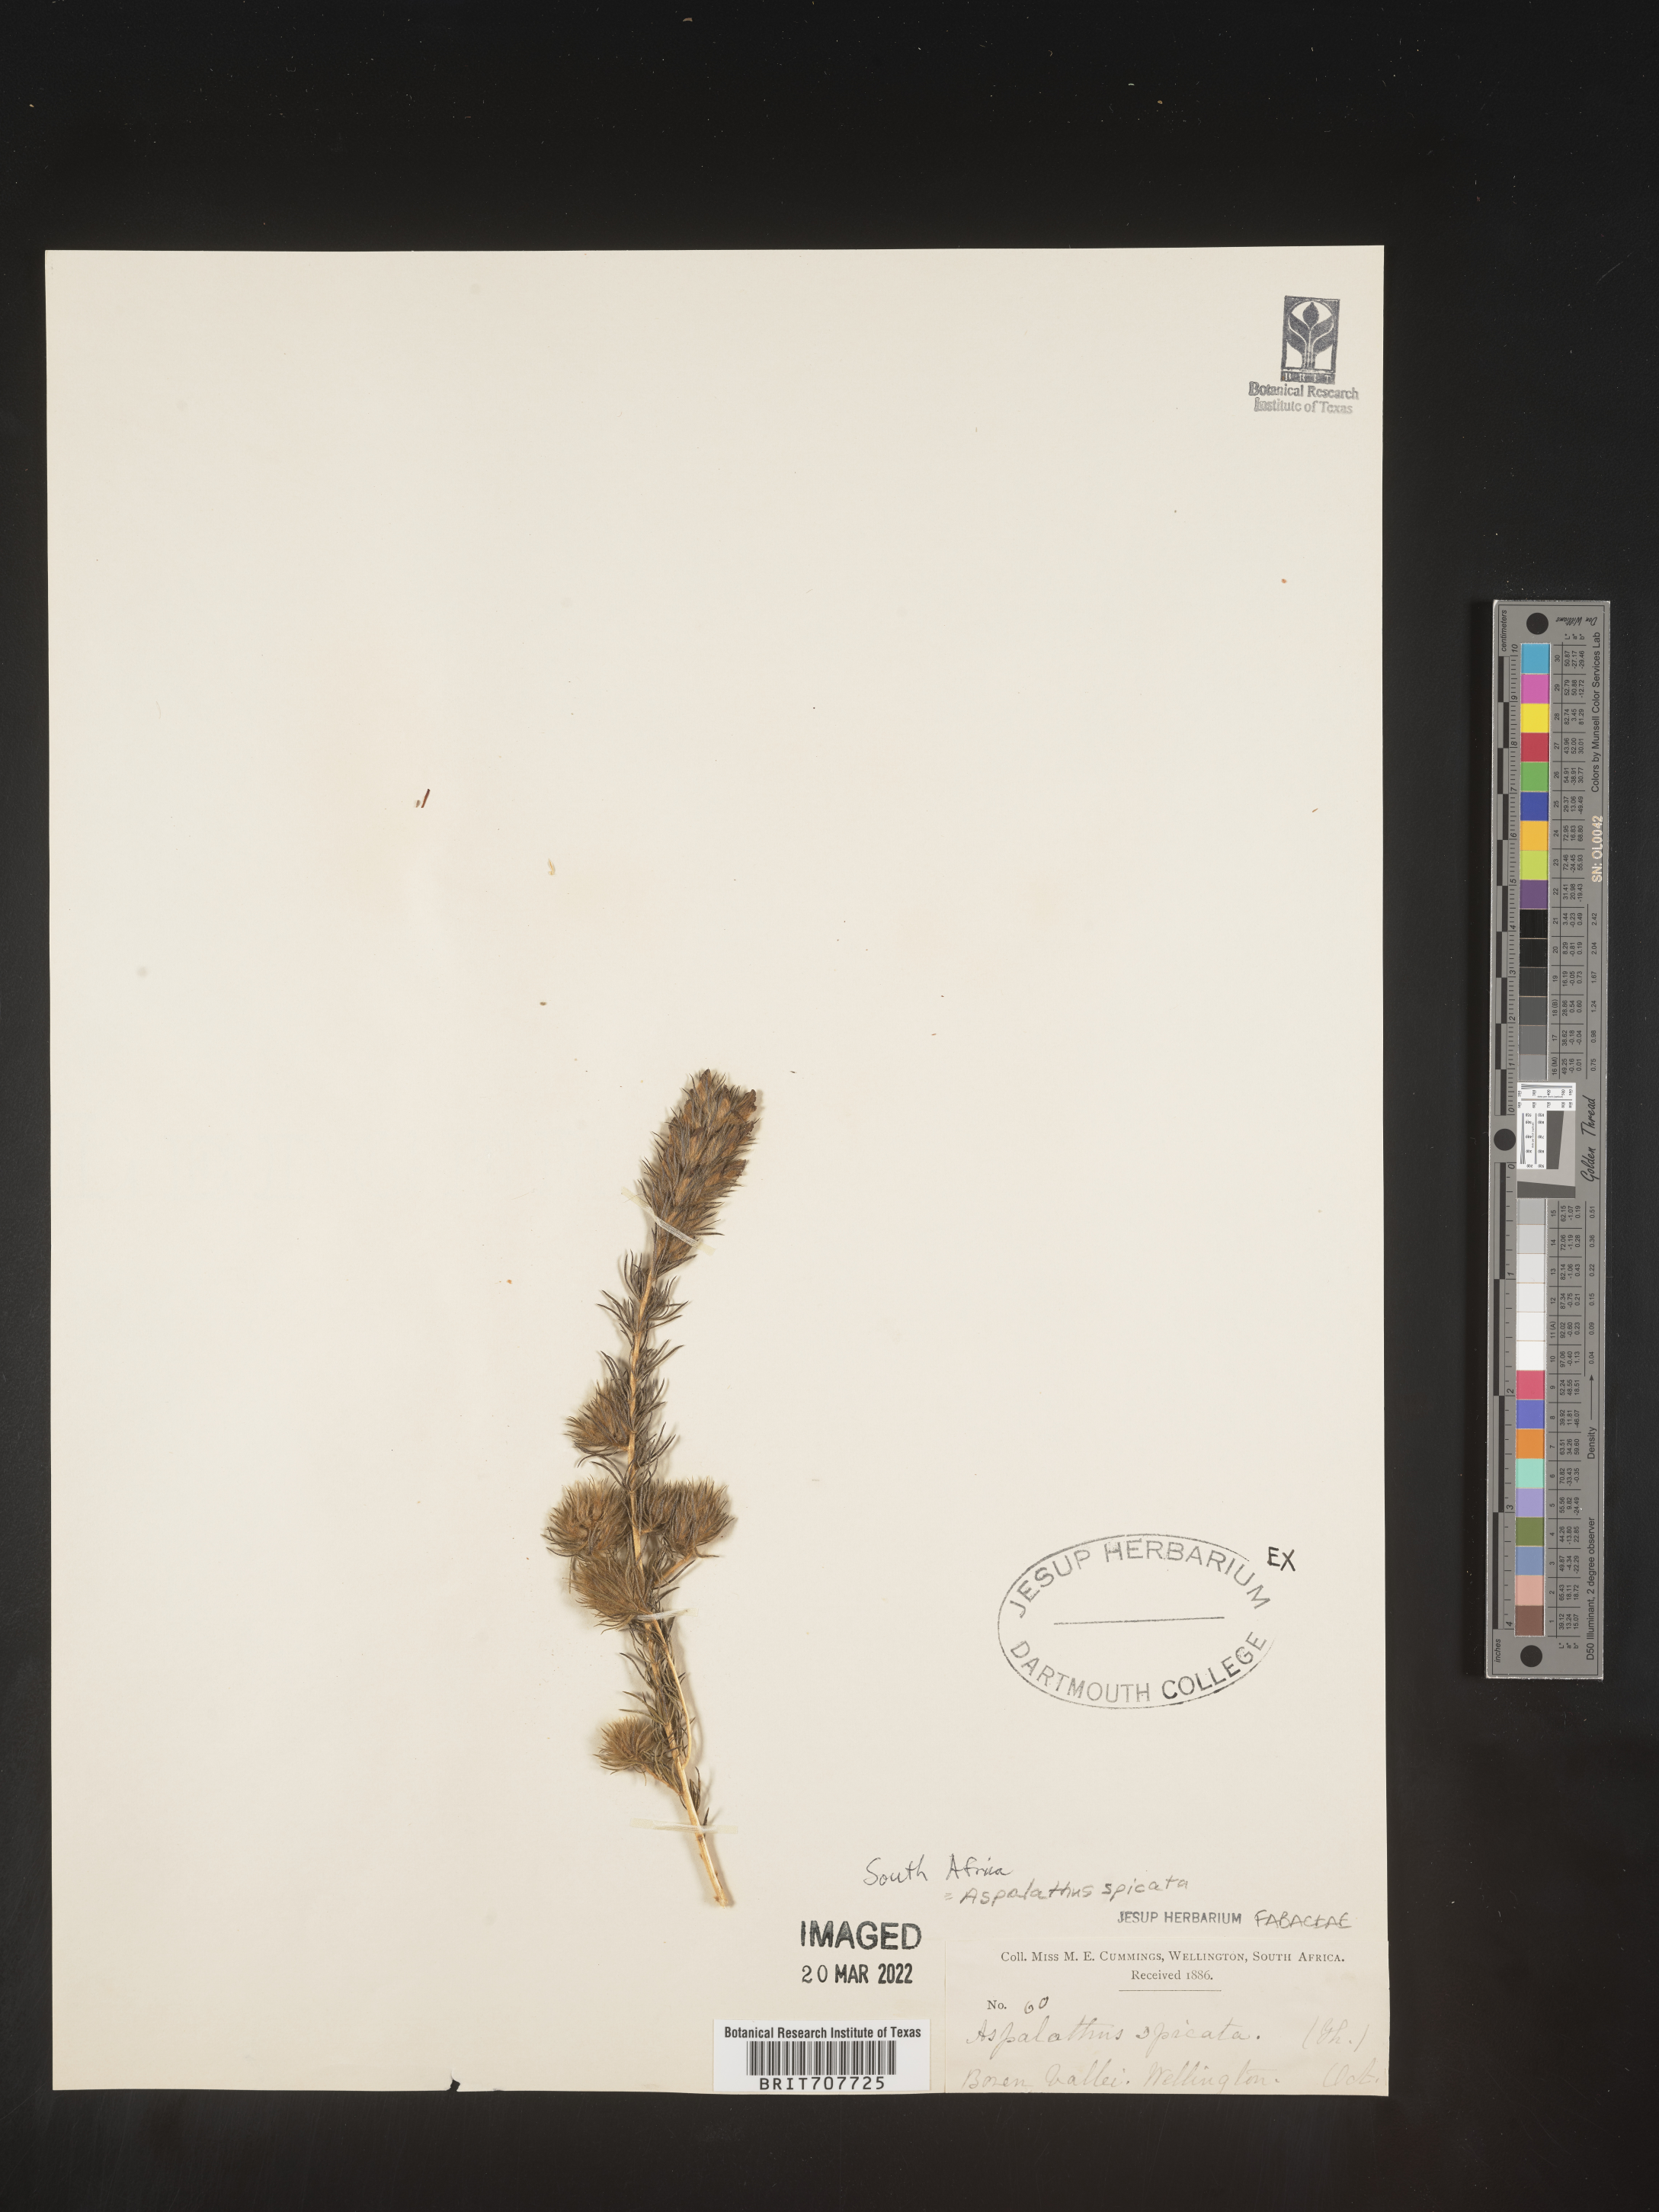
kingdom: Plantae
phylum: Tracheophyta
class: Magnoliopsida
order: Fabales
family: Fabaceae
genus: Aspalathus
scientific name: Aspalathus
